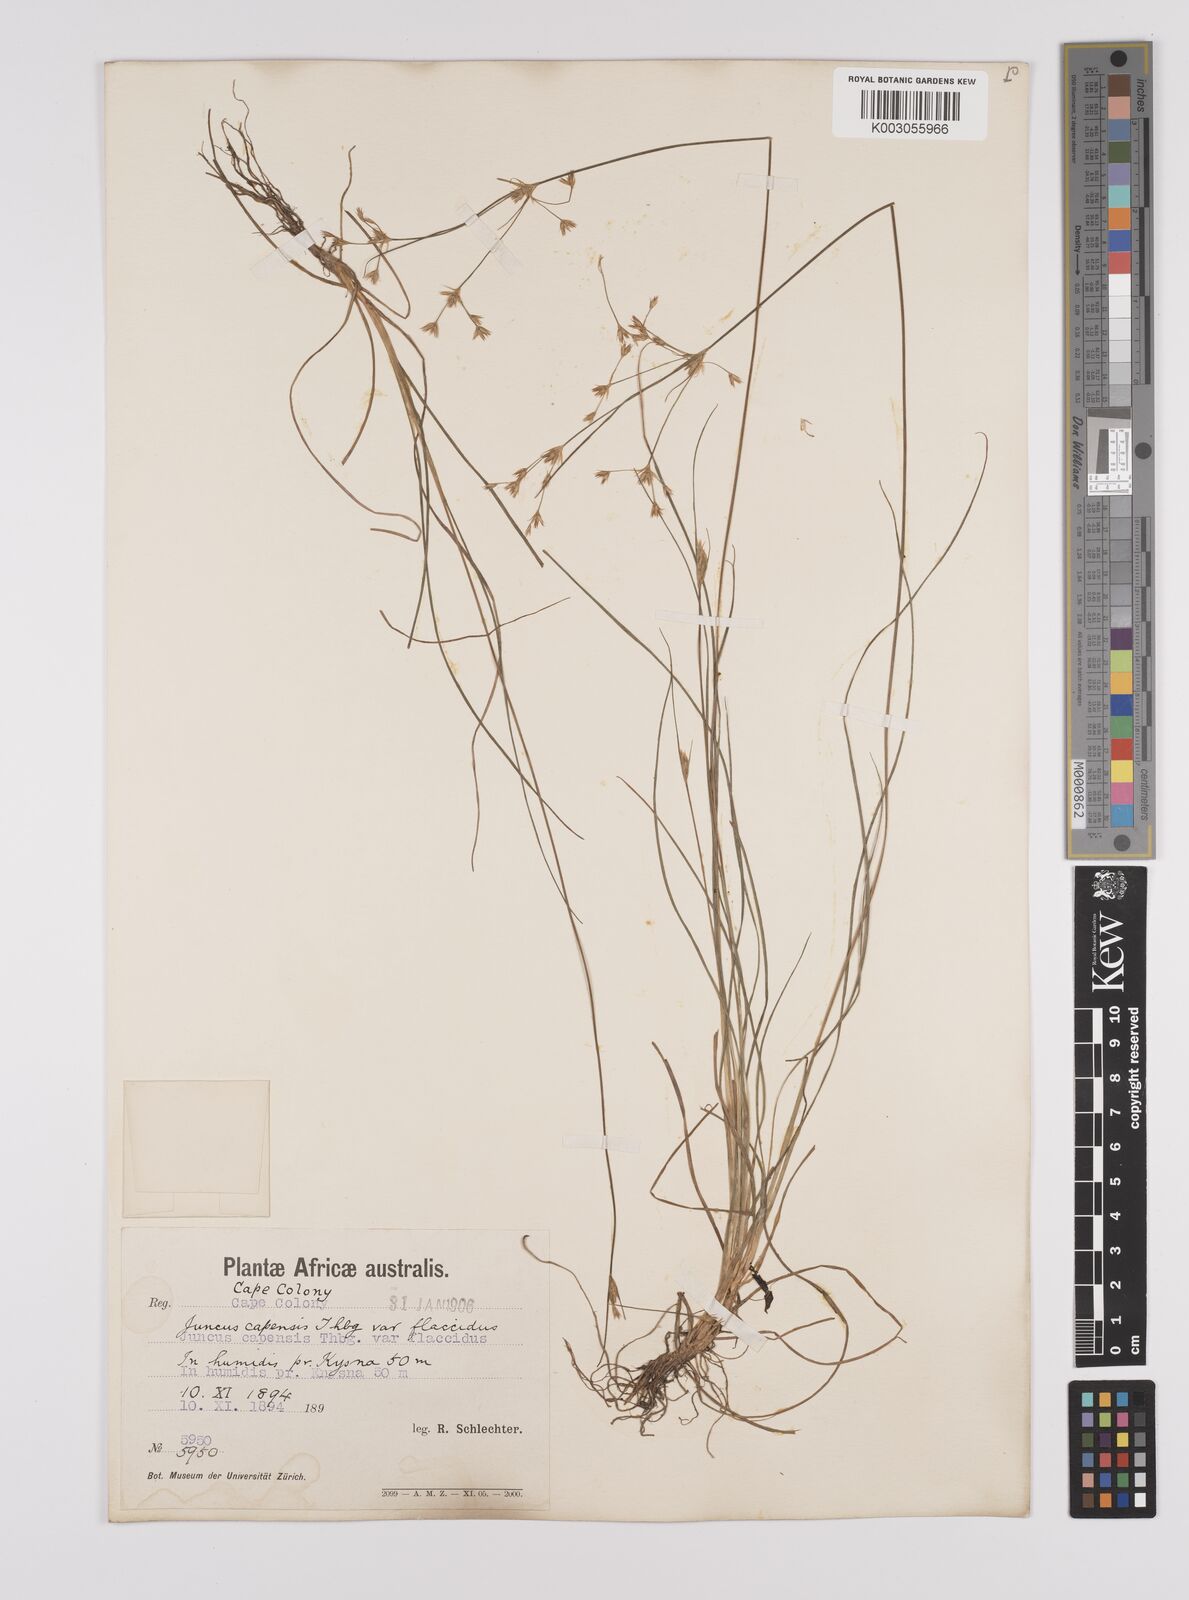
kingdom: Plantae
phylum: Tracheophyta
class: Liliopsida
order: Poales
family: Juncaceae
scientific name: Juncaceae
